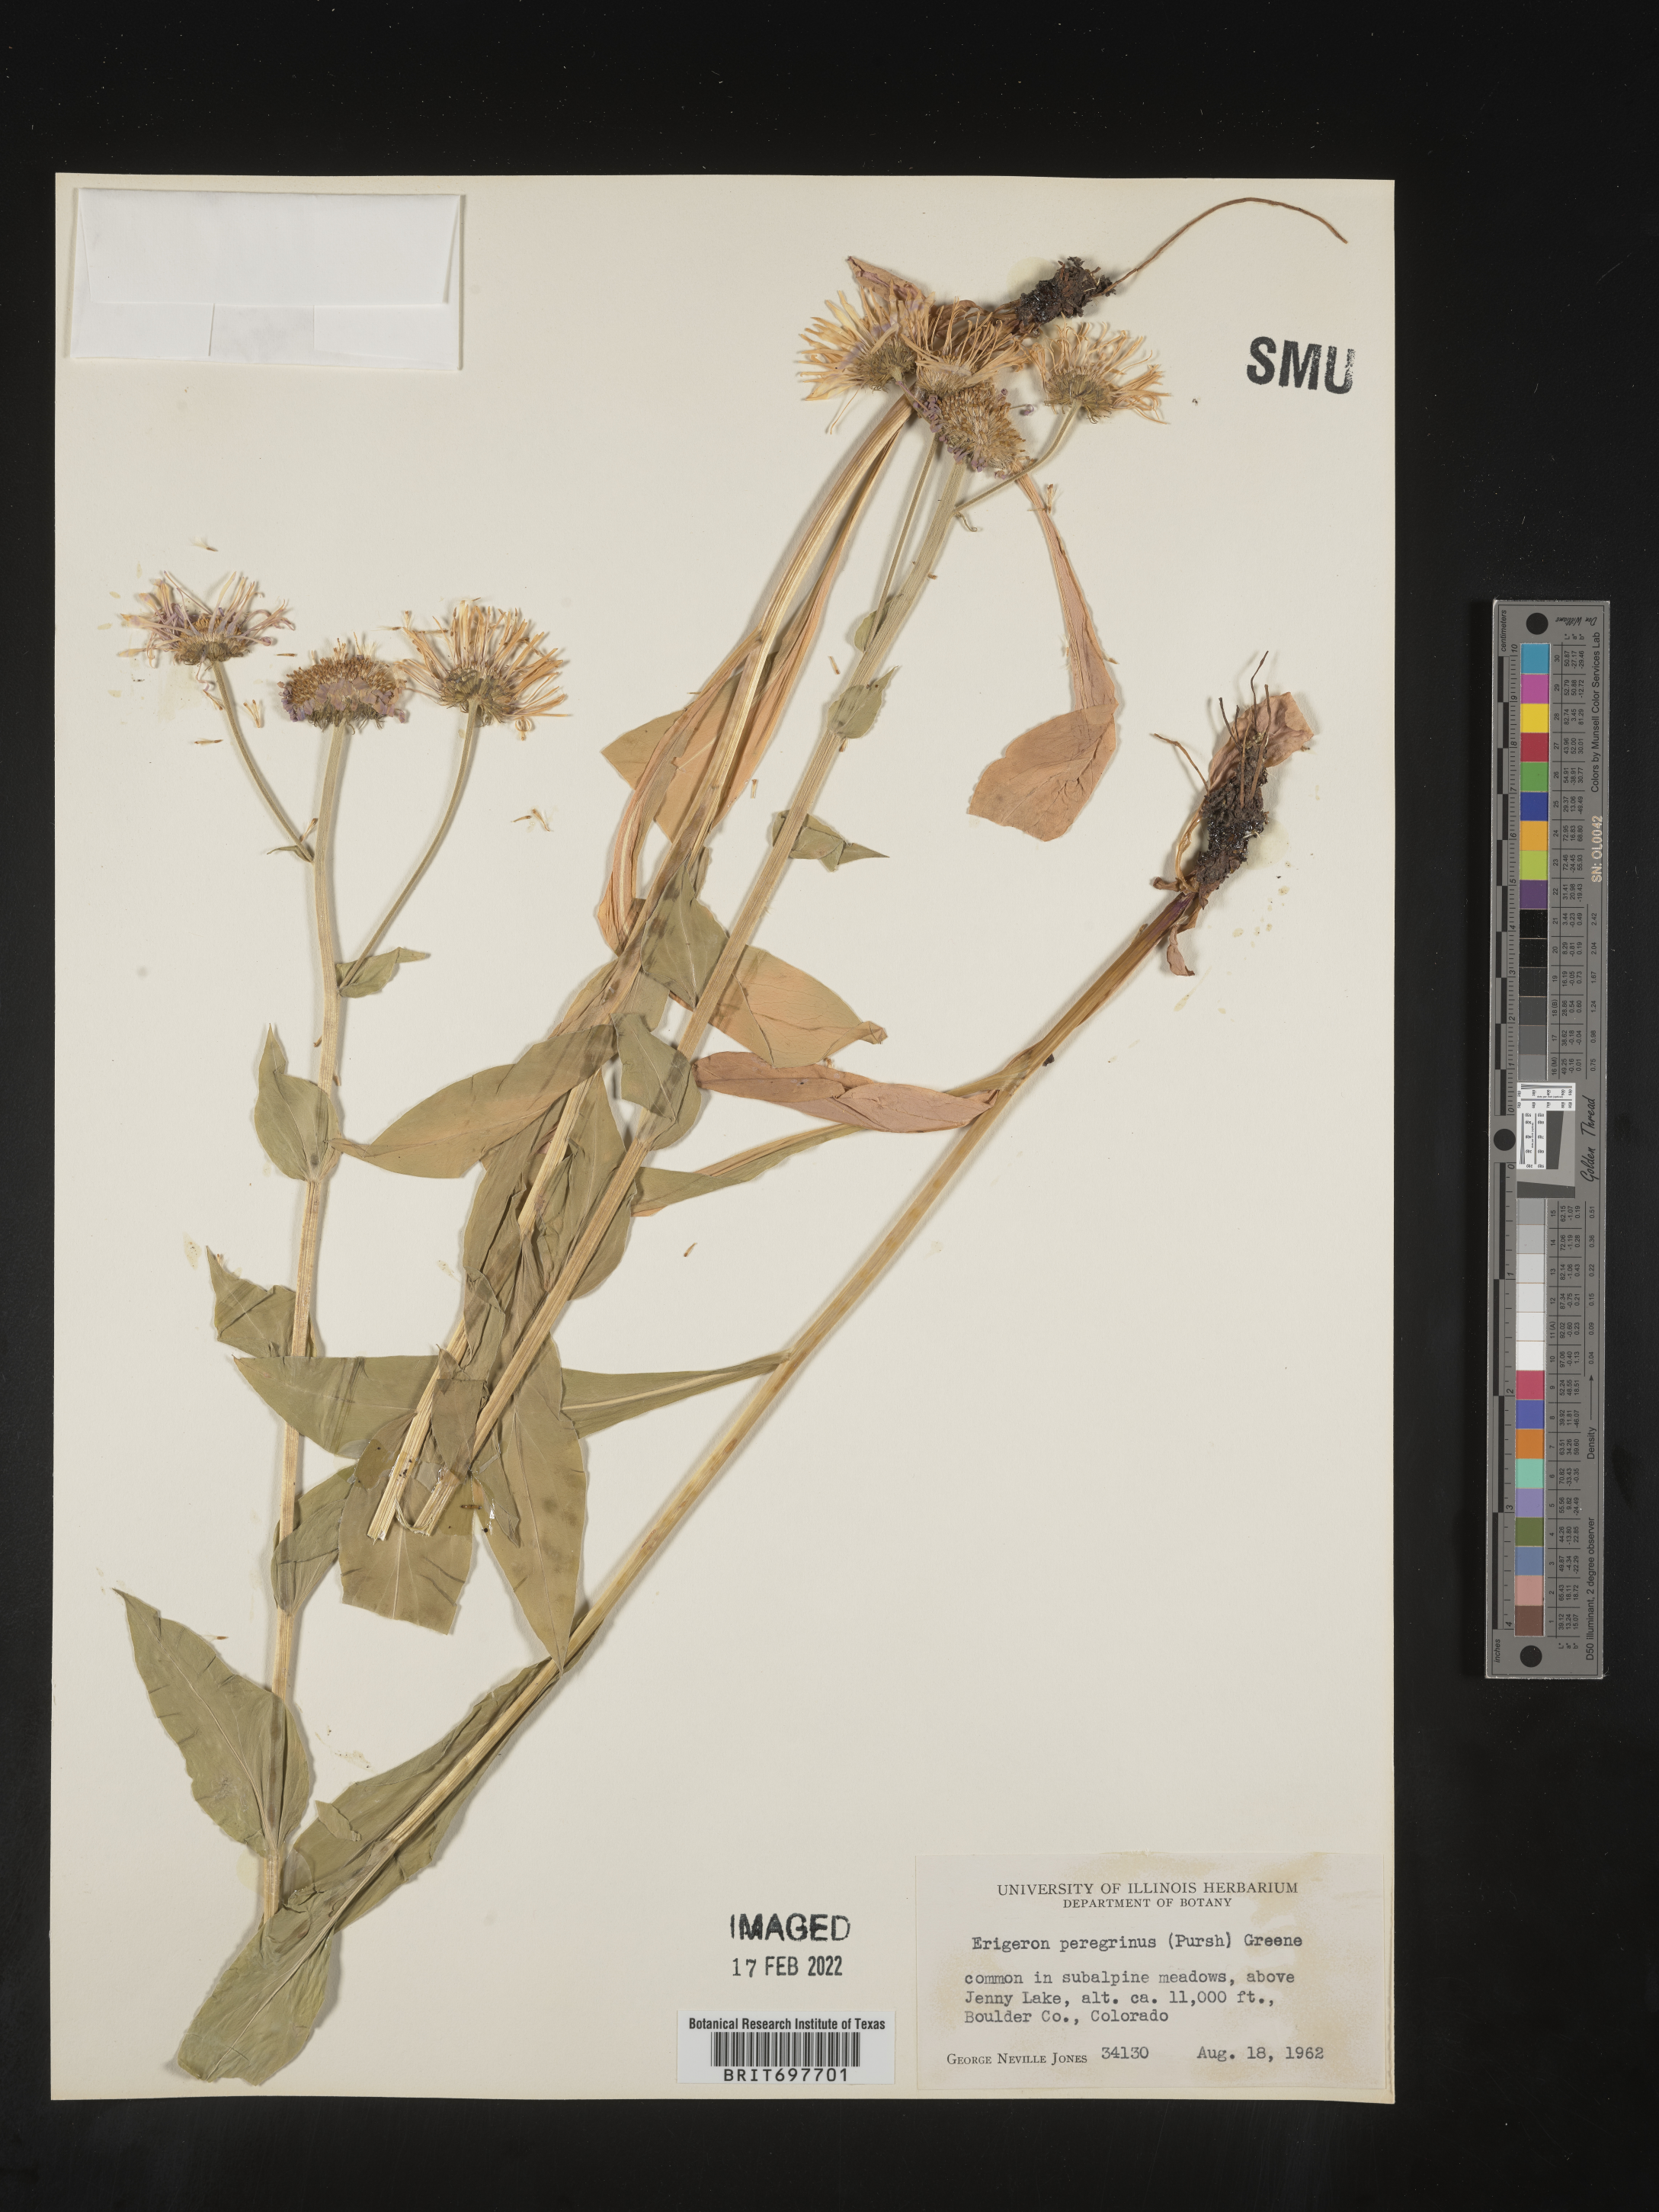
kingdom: Plantae
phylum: Tracheophyta
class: Magnoliopsida
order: Asterales
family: Asteraceae
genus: Erigeron
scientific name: Erigeron glacialis
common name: Subalpine fleabane
